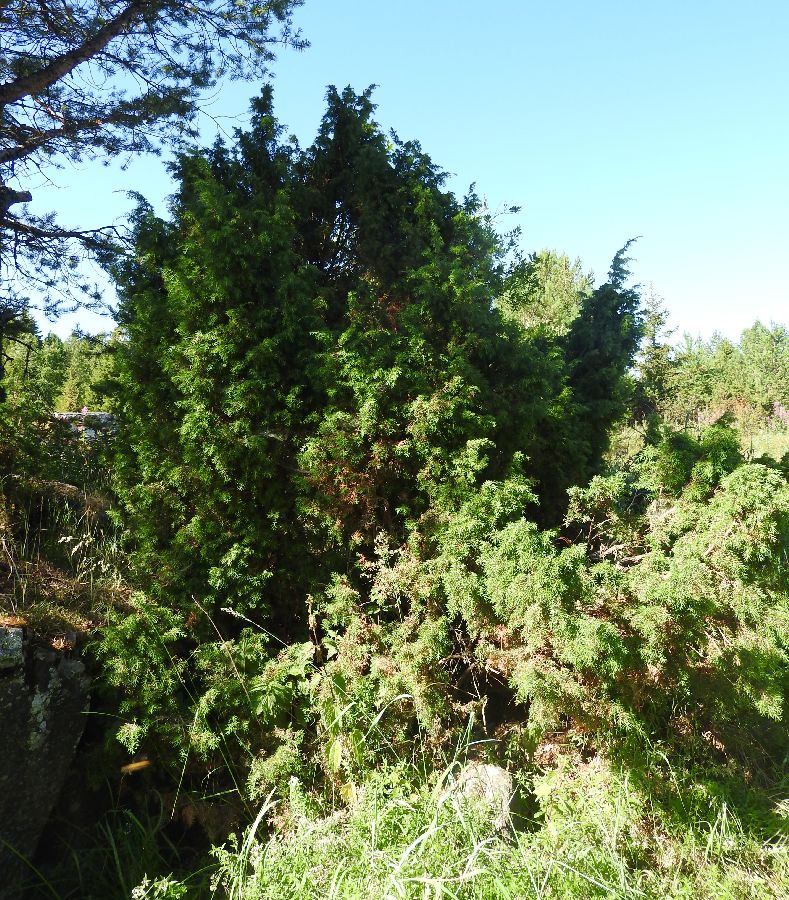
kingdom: Plantae
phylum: Tracheophyta
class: Pinopsida
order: Pinales
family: Cupressaceae
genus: Juniperus
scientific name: Juniperus communis
